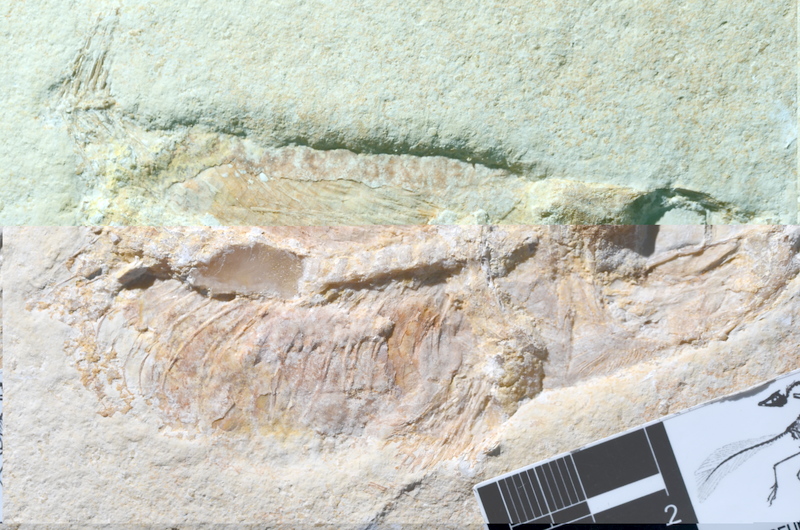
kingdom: Animalia
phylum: Chordata
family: Ascalaboidae
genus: Tharsis
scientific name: Tharsis dubius
